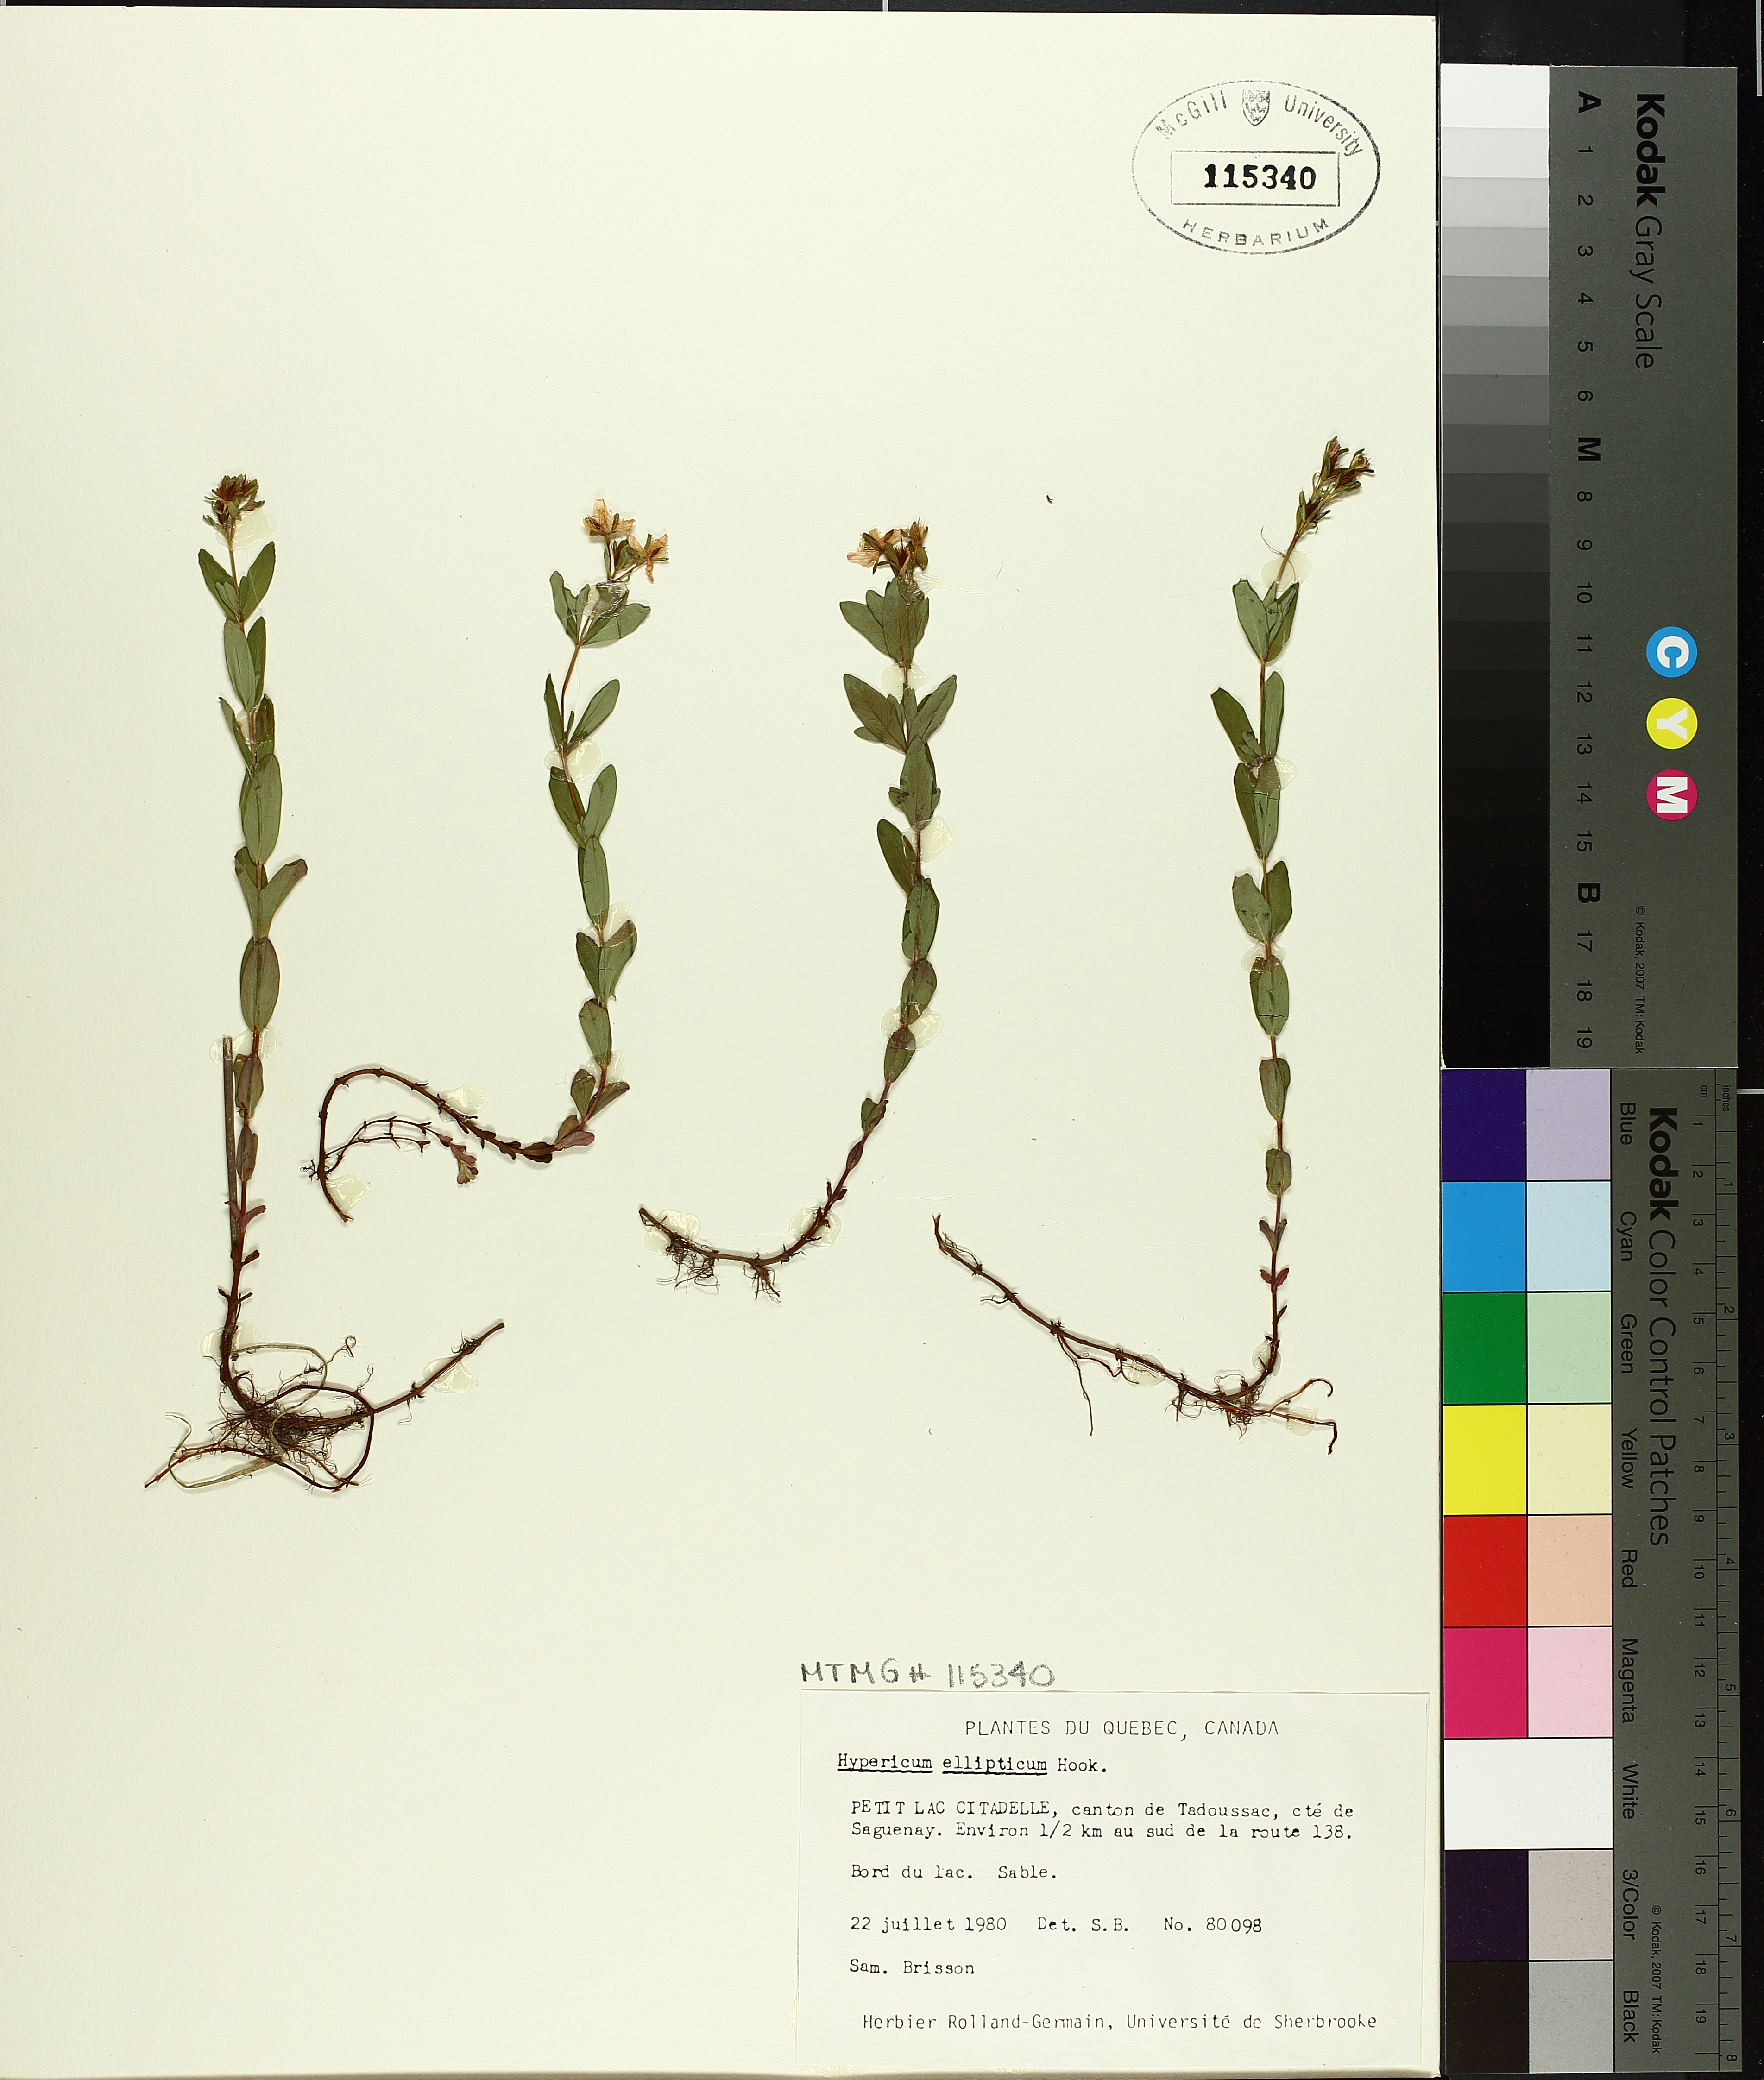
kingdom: Plantae
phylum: Tracheophyta
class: Magnoliopsida
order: Malpighiales
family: Hypericaceae
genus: Hypericum
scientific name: Hypericum ellipticum
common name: Elliptic st. john's-wort
